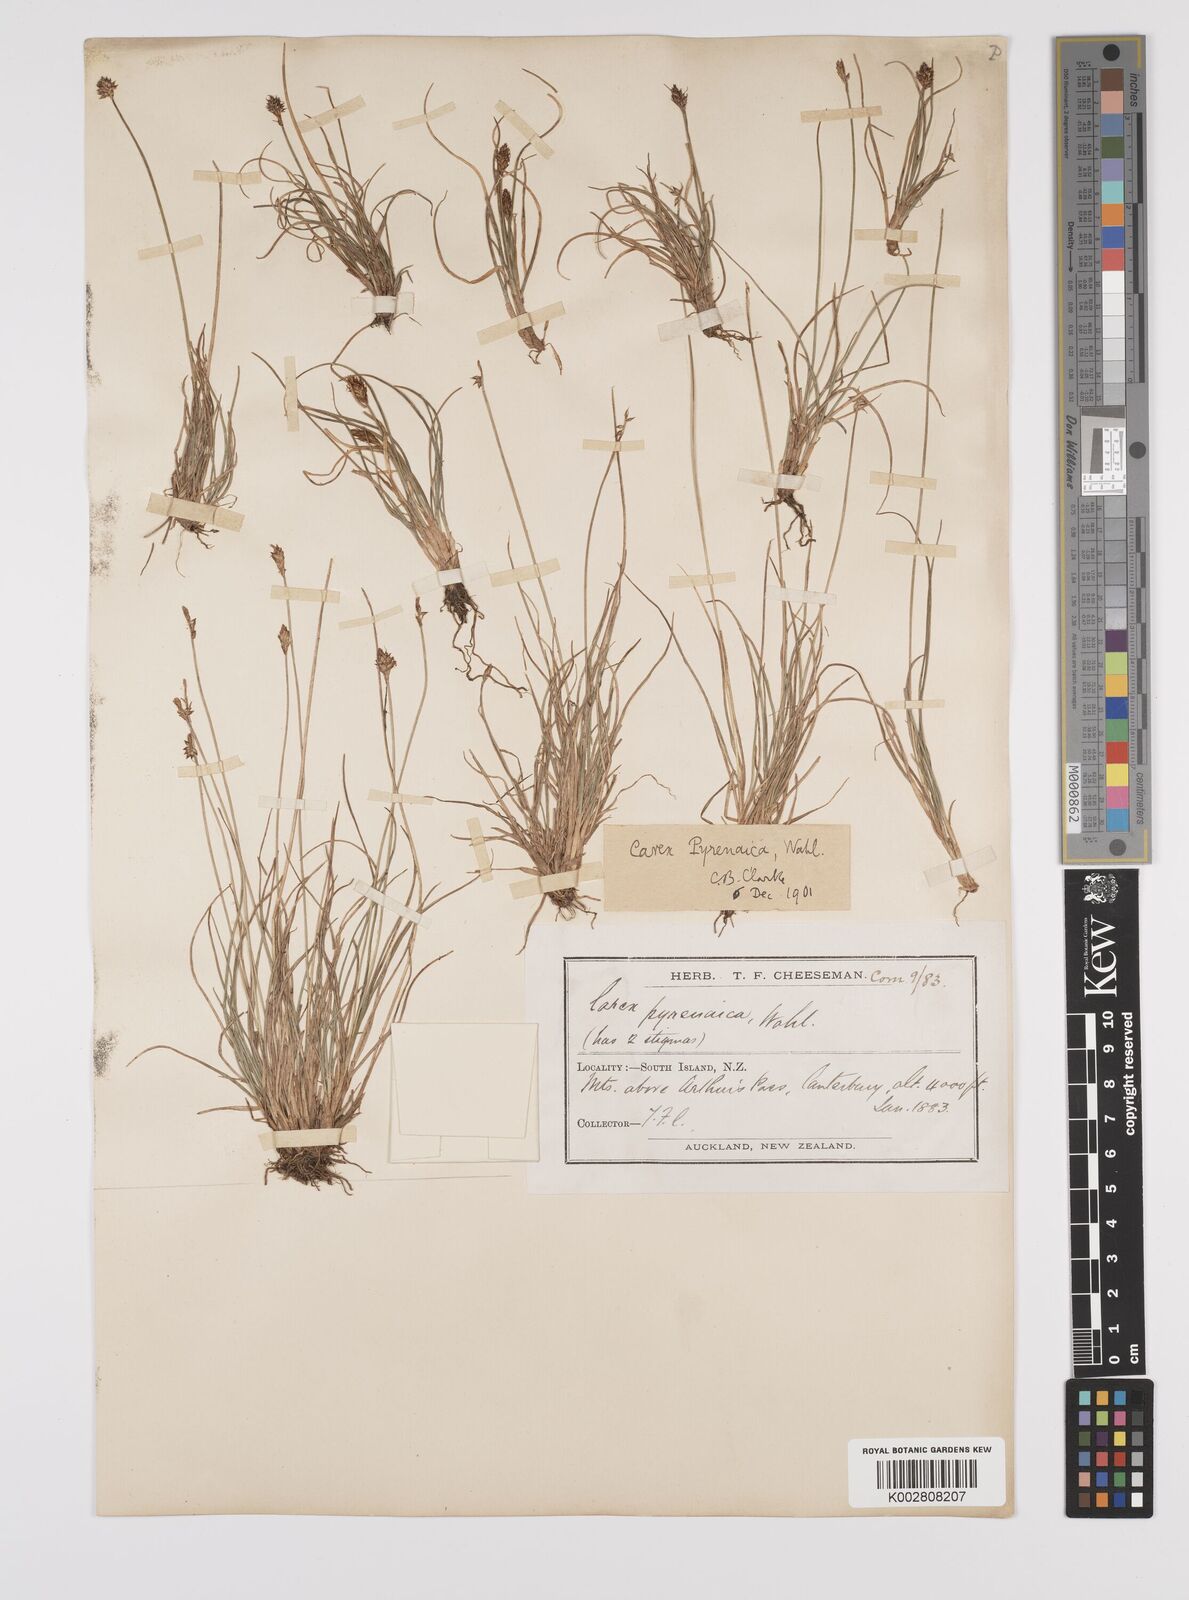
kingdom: Plantae
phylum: Tracheophyta
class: Liliopsida
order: Poales
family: Cyperaceae
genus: Carex
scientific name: Carex pyrenaica
